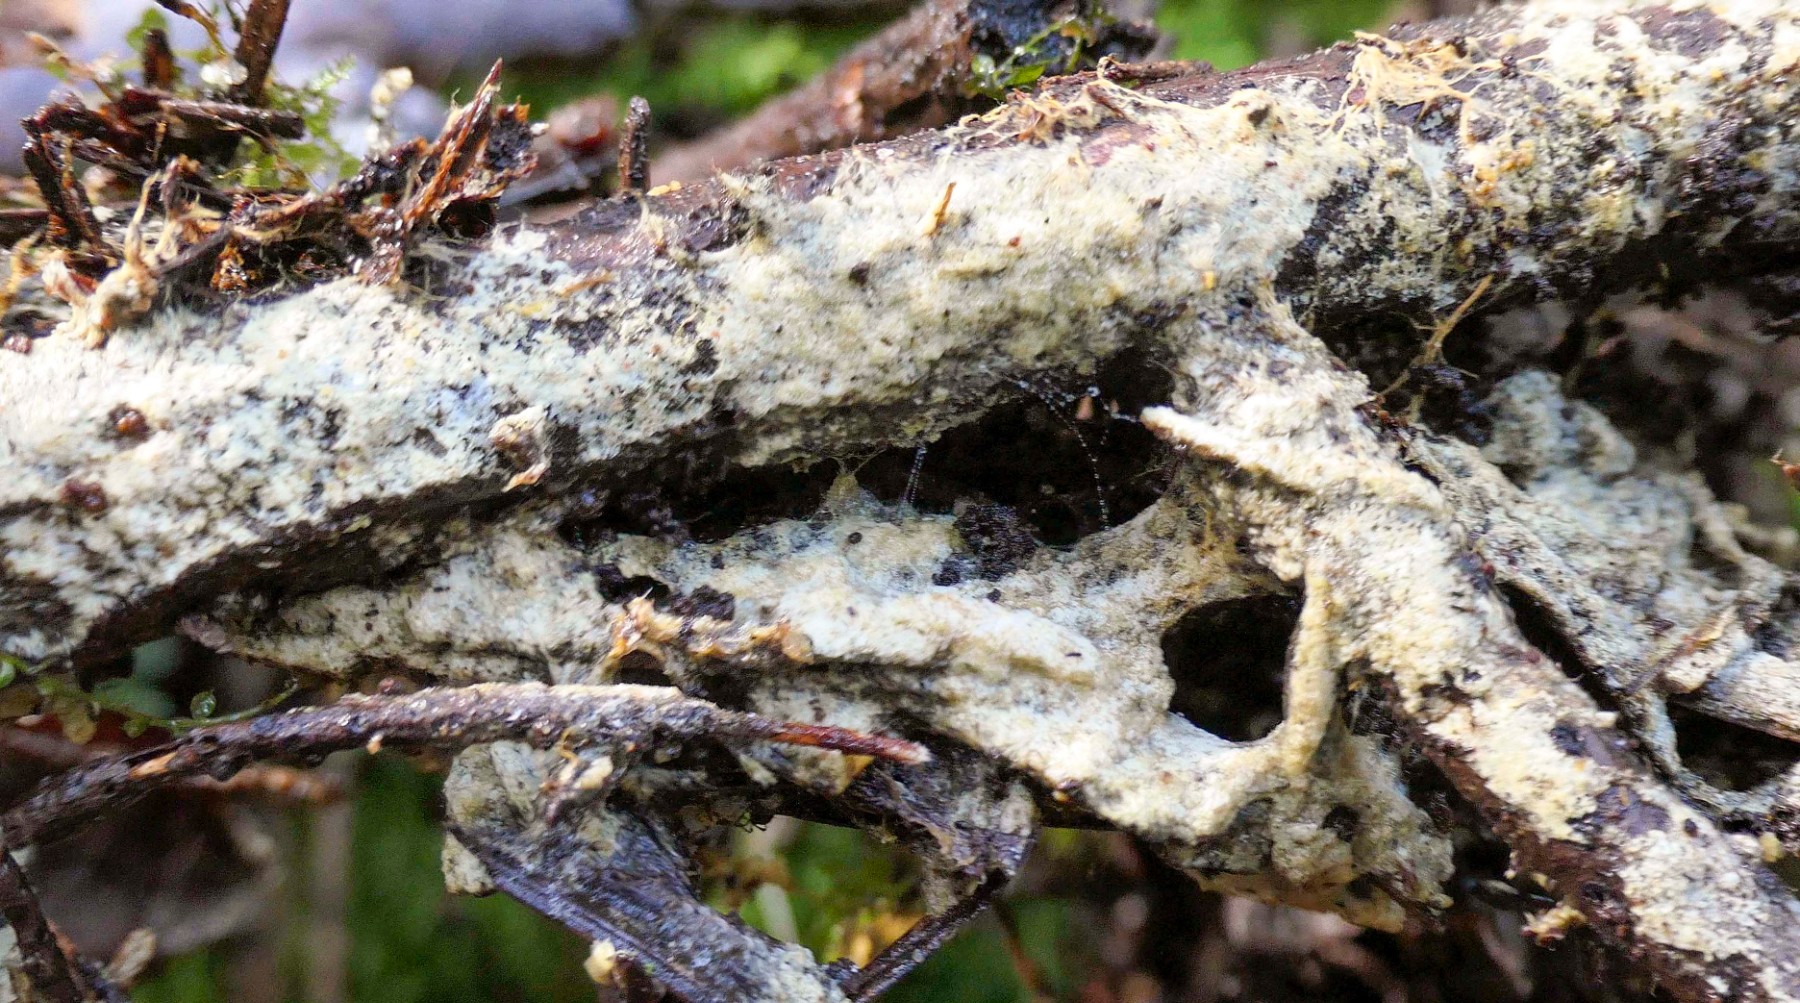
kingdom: Plantae
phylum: Bryophyta
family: Agaricomycetidae
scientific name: Agaricomycetidae
